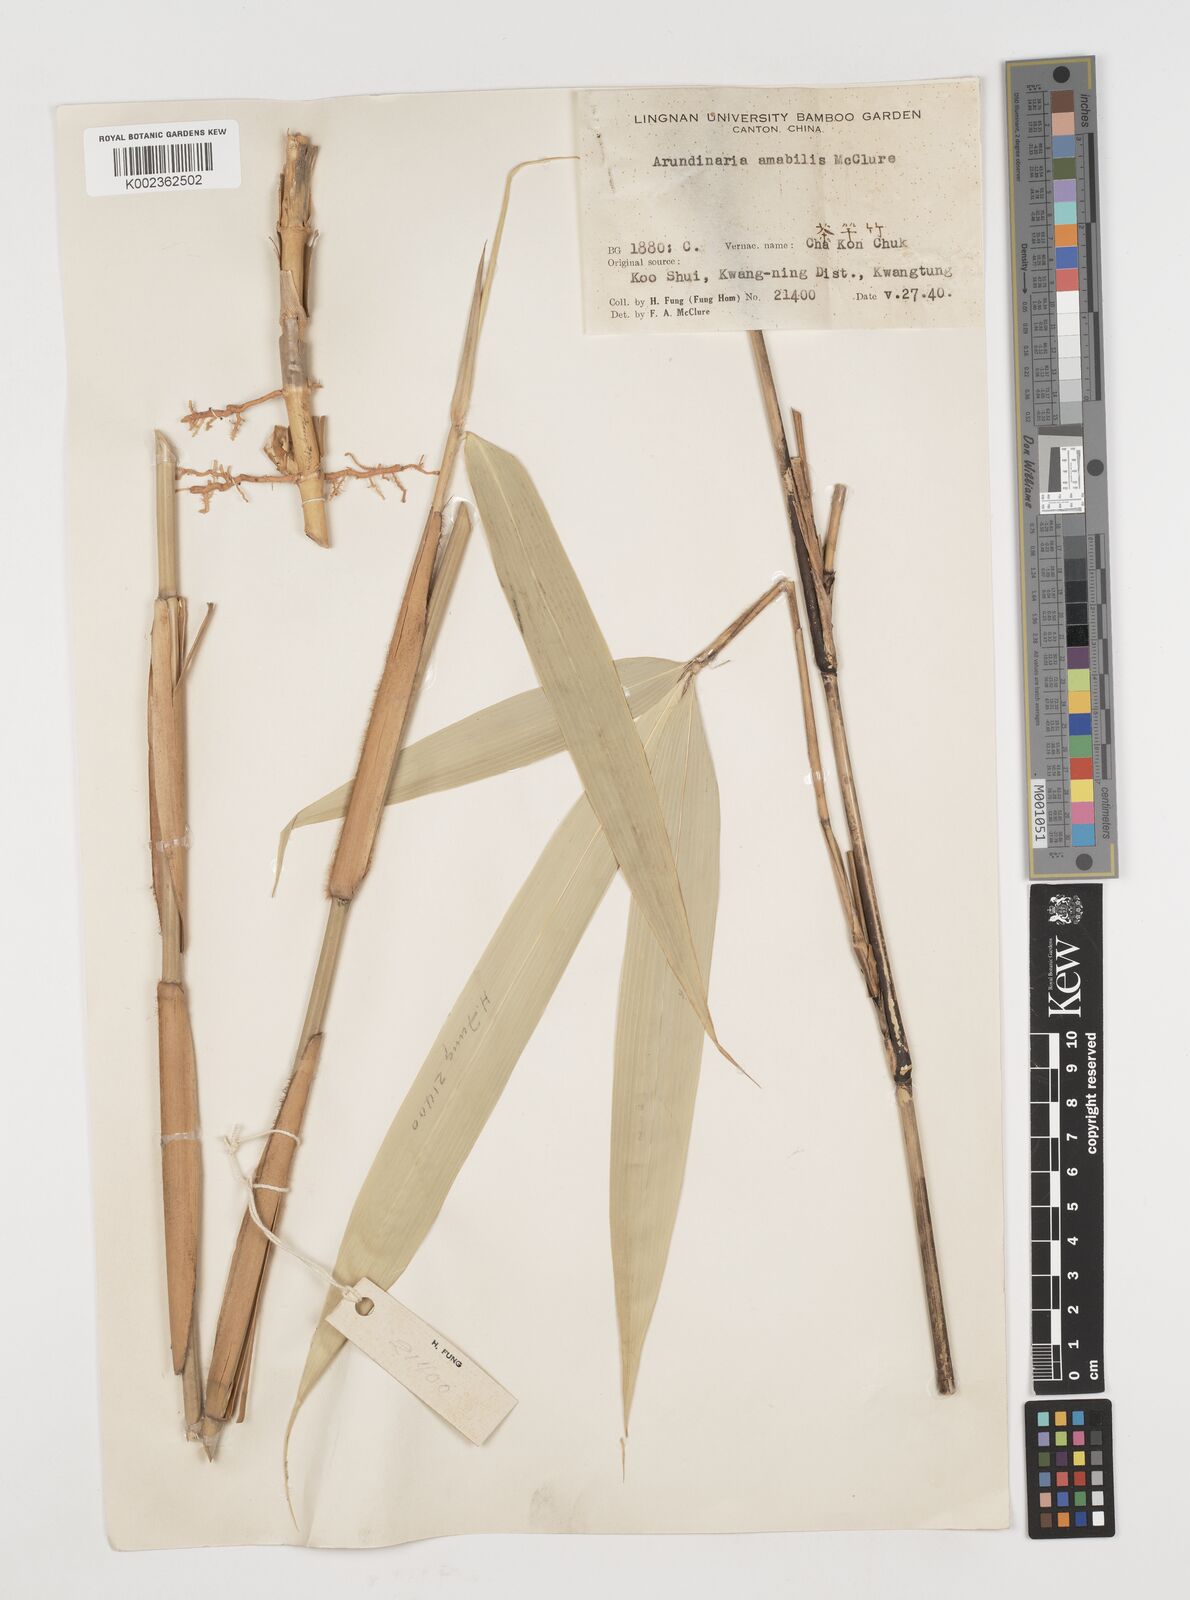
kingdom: Plantae
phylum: Tracheophyta
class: Liliopsida
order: Poales
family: Poaceae
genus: Pseudosasa
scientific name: Pseudosasa amabilis
